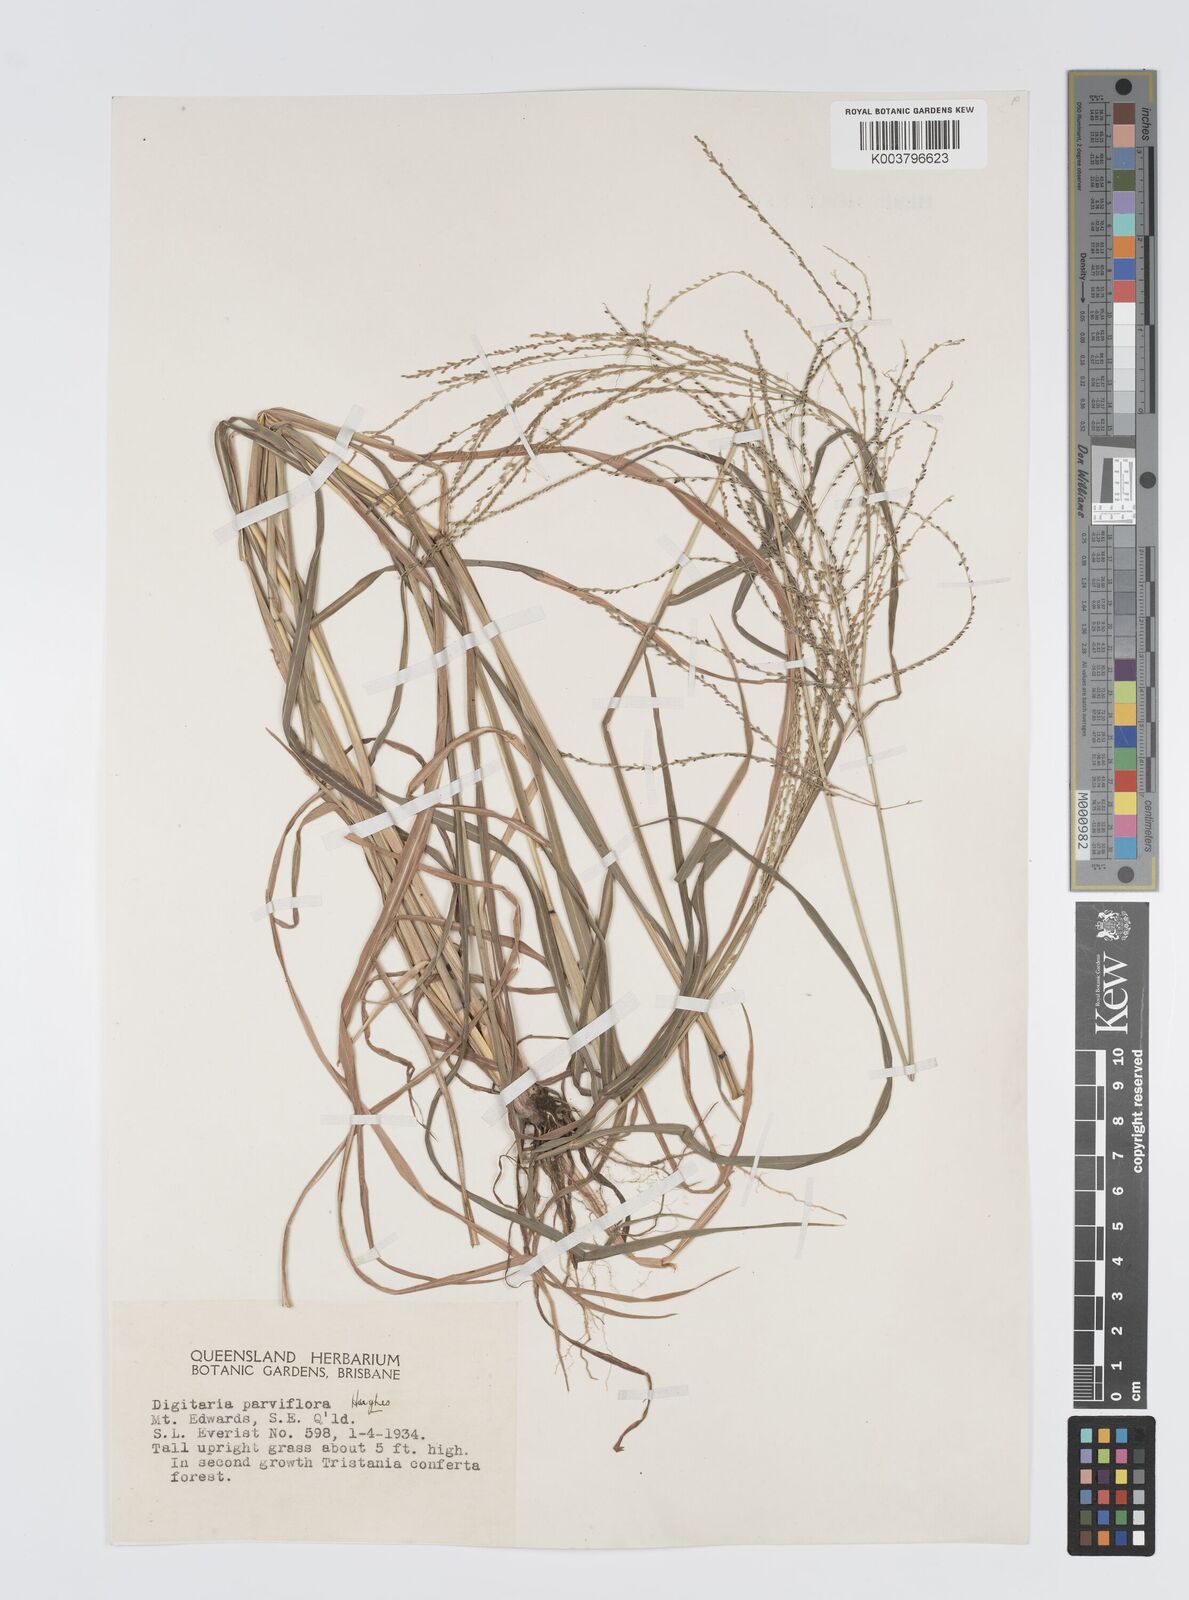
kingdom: Plantae
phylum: Tracheophyta
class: Liliopsida
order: Poales
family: Poaceae
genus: Digitaria
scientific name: Digitaria parviflora
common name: Small-flower finger grass
